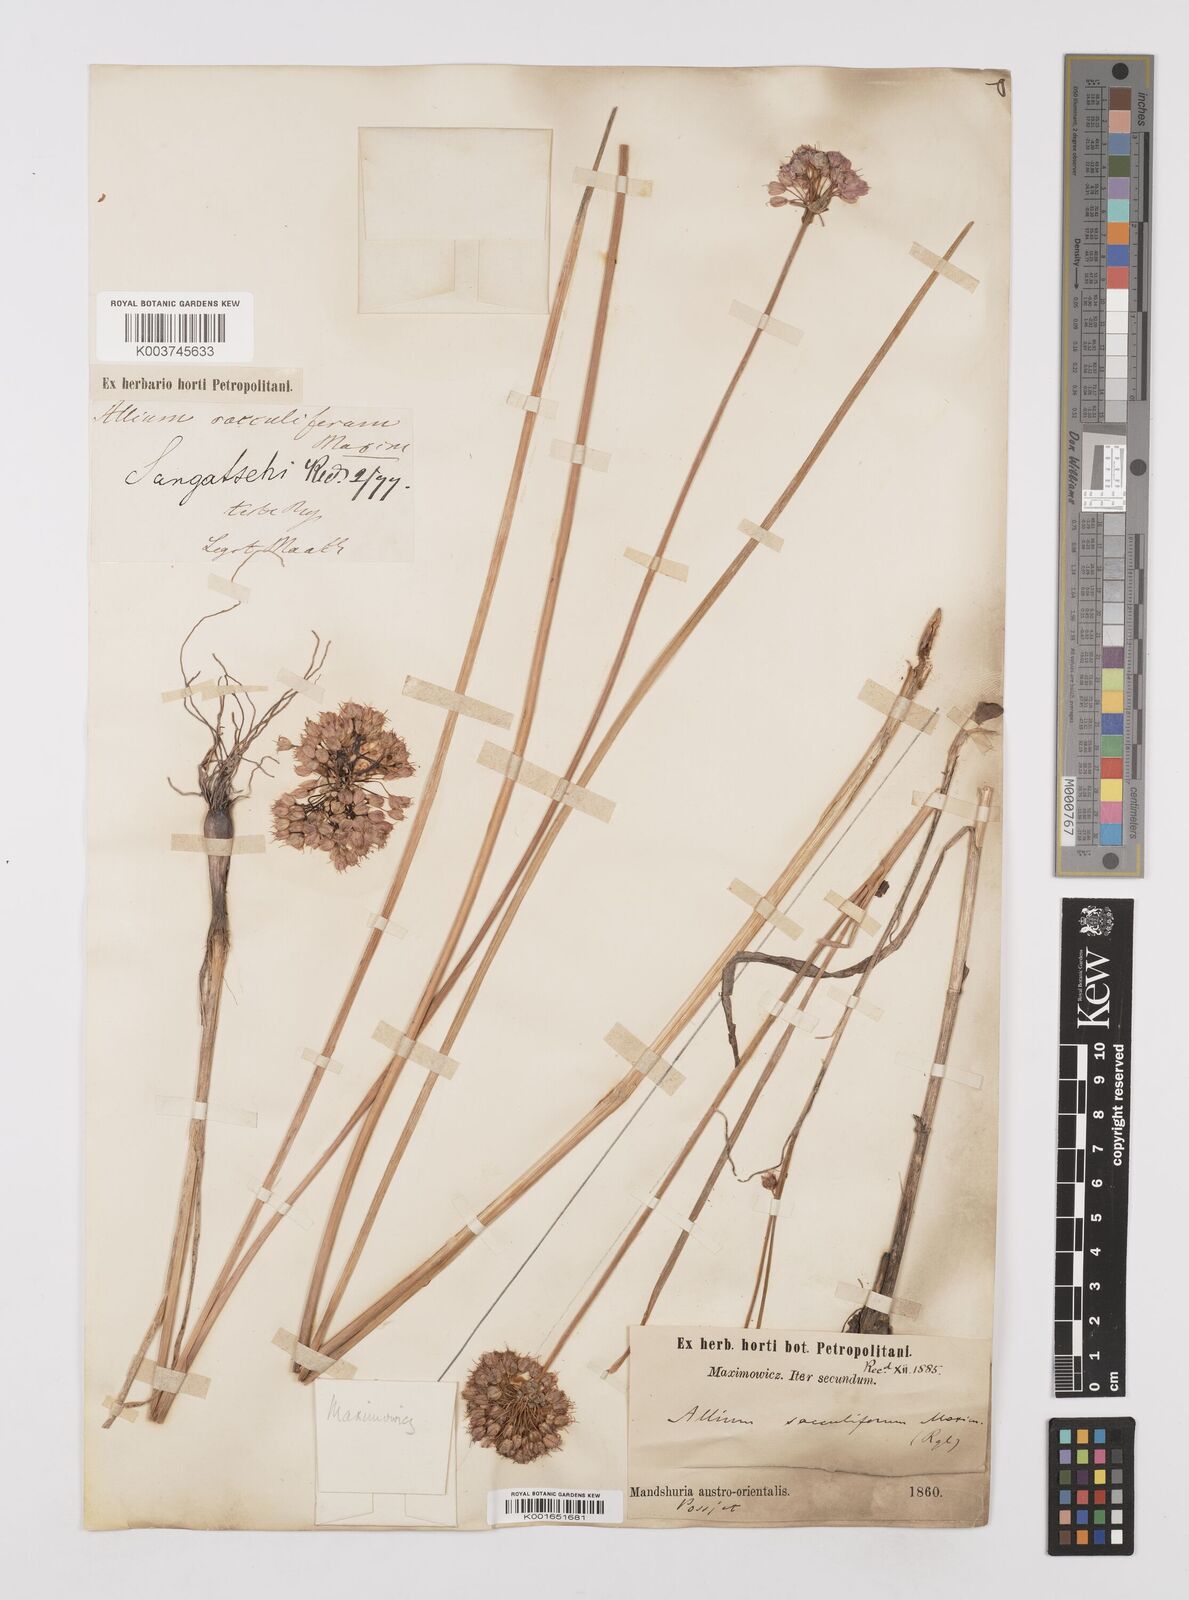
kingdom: Plantae
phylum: Tracheophyta
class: Liliopsida
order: Asparagales
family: Amaryllidaceae
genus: Allium
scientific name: Allium sacculiferum
